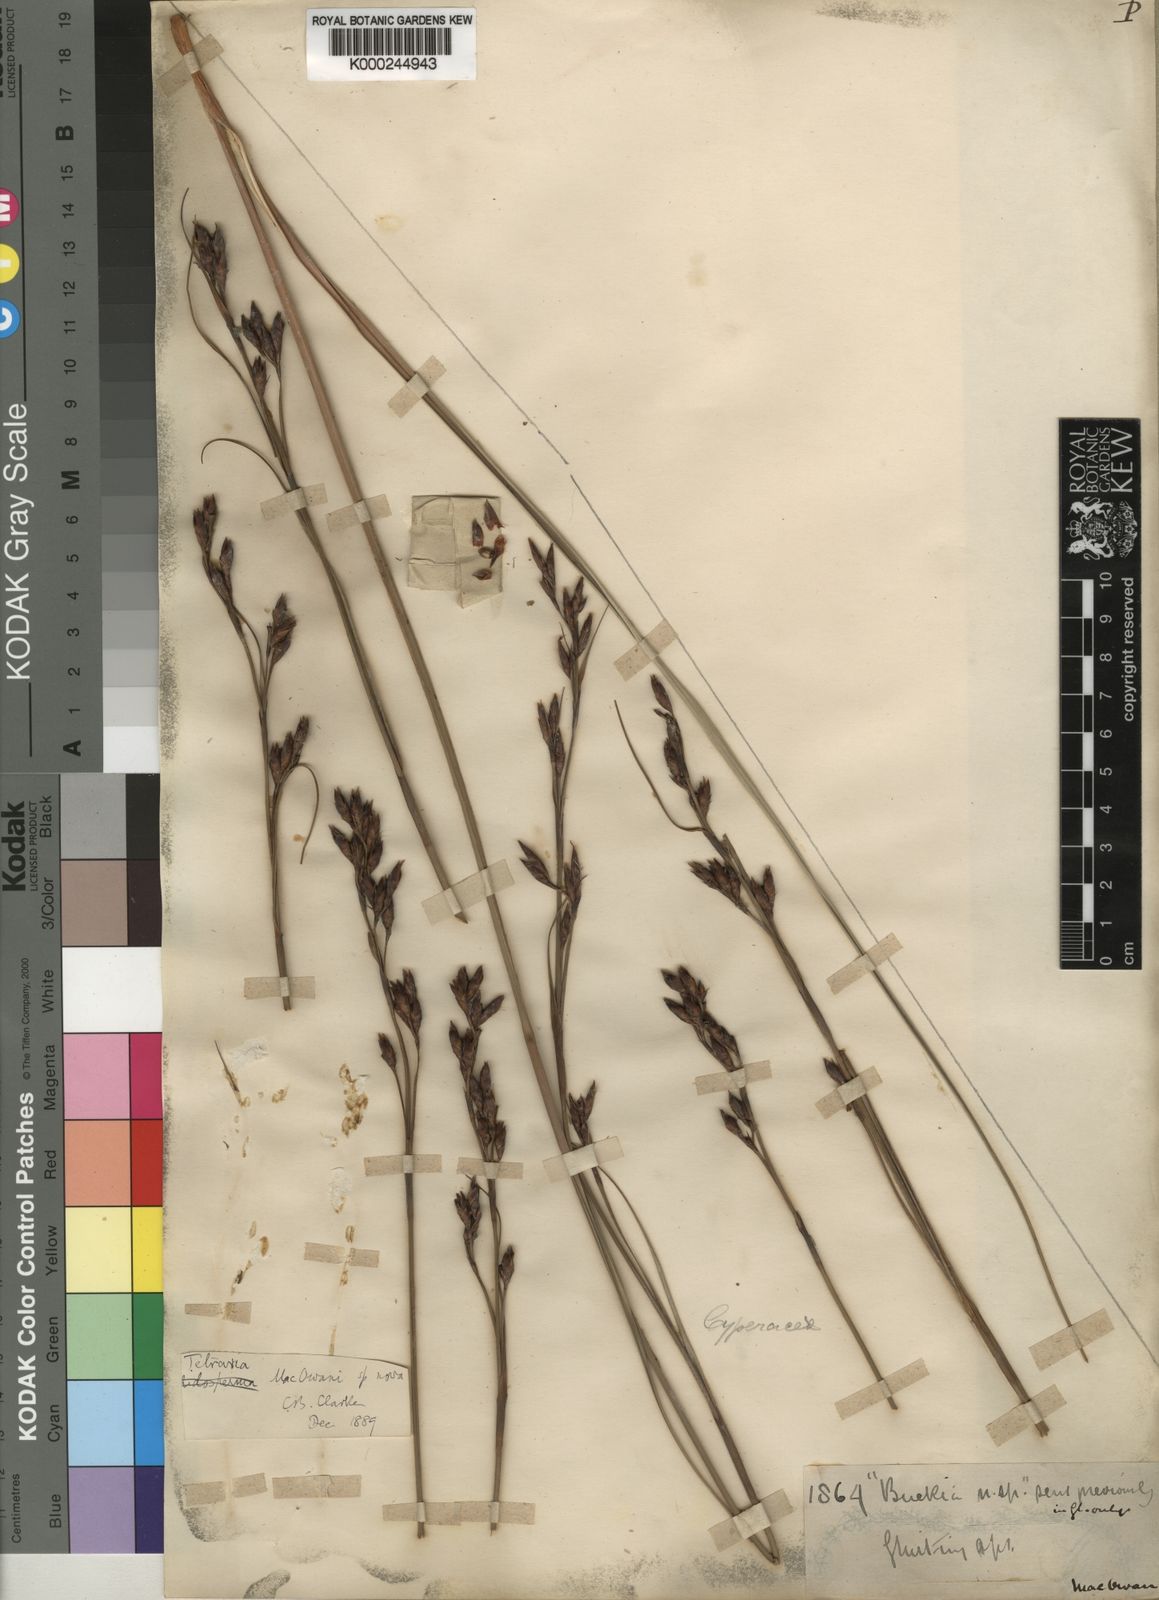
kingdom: Plantae
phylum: Tracheophyta
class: Liliopsida
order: Poales
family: Cyperaceae
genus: Tetraria
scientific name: Tetraria macowaniana
